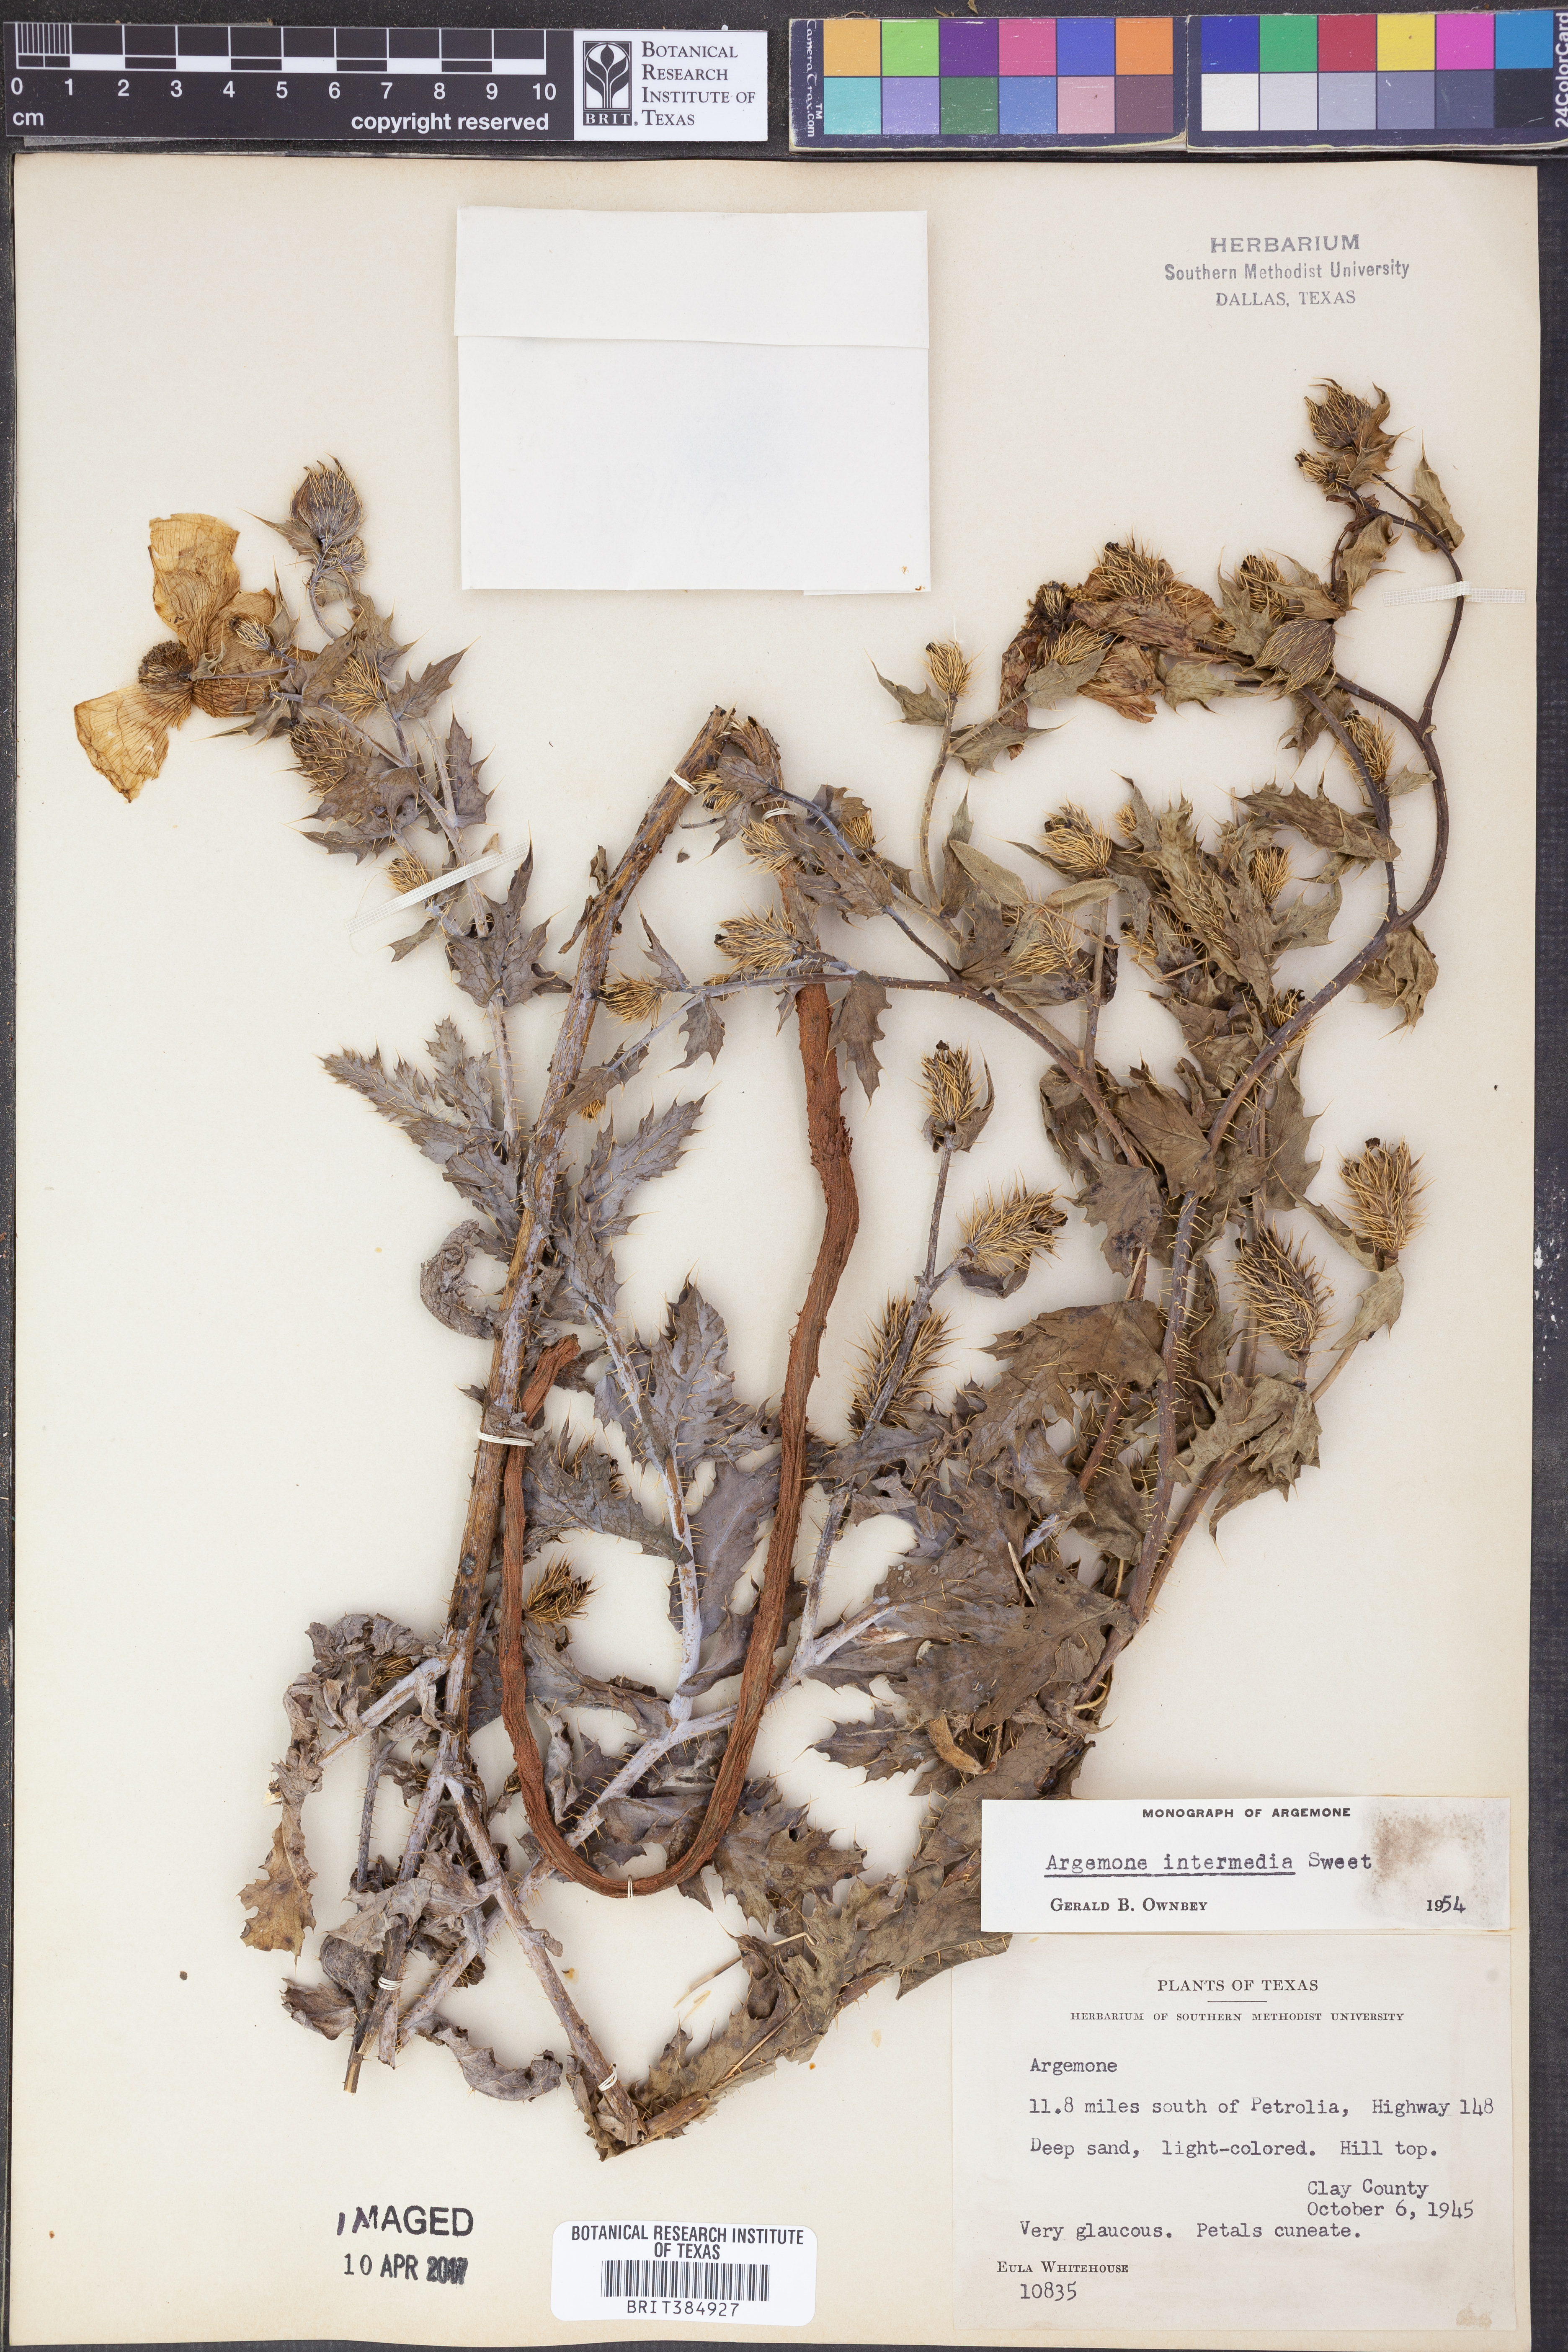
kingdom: Plantae
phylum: Tracheophyta
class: Magnoliopsida
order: Ranunculales
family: Papaveraceae
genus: Argemone
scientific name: Argemone intermedia
